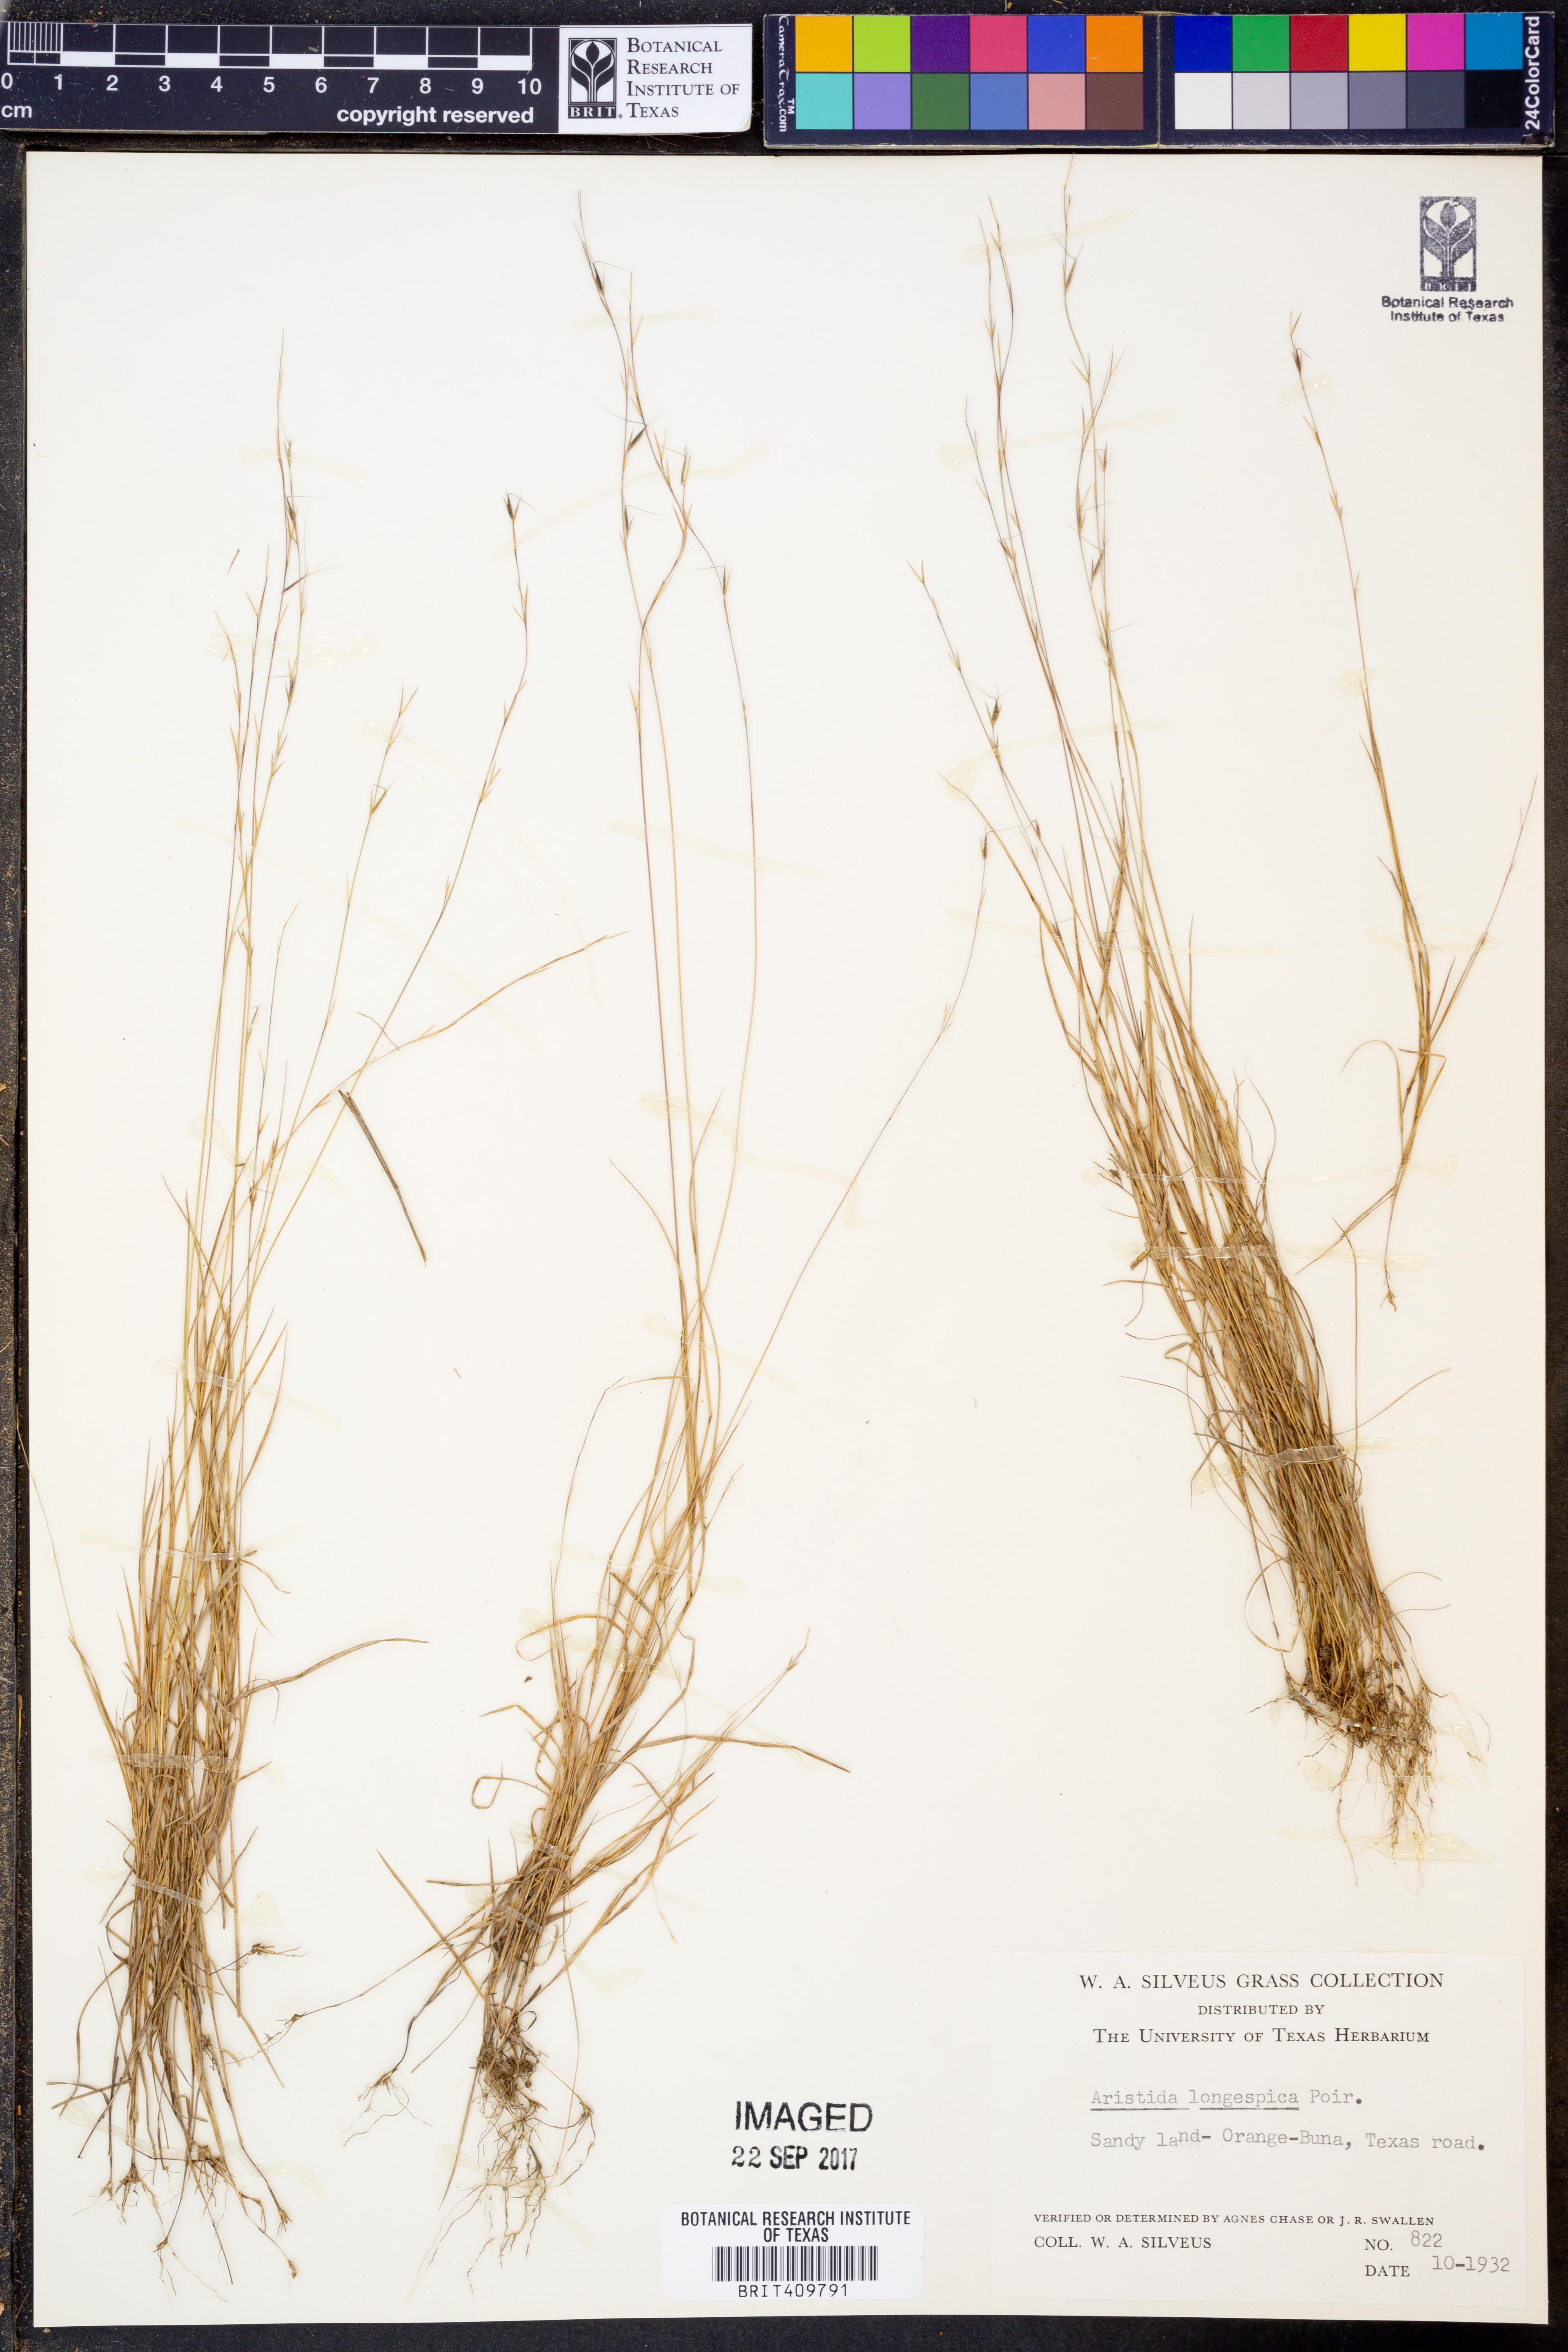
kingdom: Plantae
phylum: Tracheophyta
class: Liliopsida
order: Poales
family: Poaceae
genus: Aristida
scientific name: Aristida longespica
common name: Long-spiked triple-awned grass
